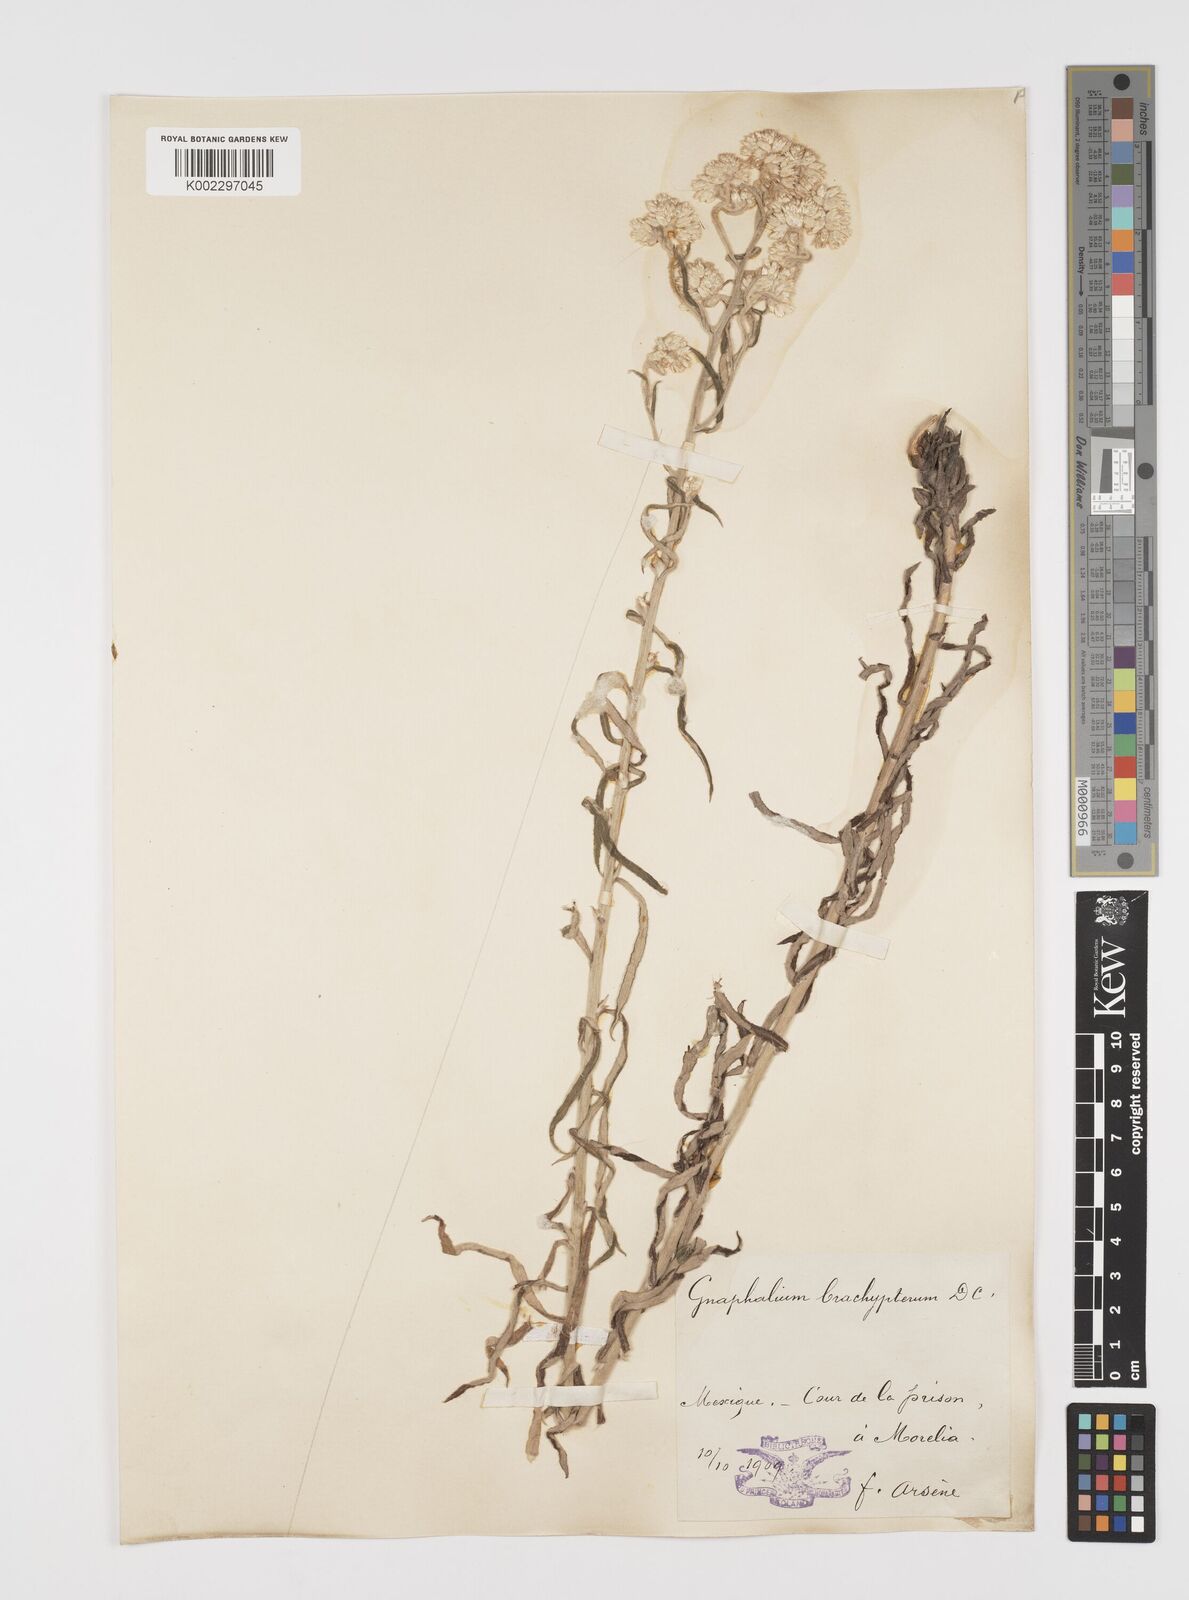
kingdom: Plantae
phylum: Tracheophyta
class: Magnoliopsida
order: Asterales
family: Asteraceae
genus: Pseudognaphalium
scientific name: Pseudognaphalium brachypterum
